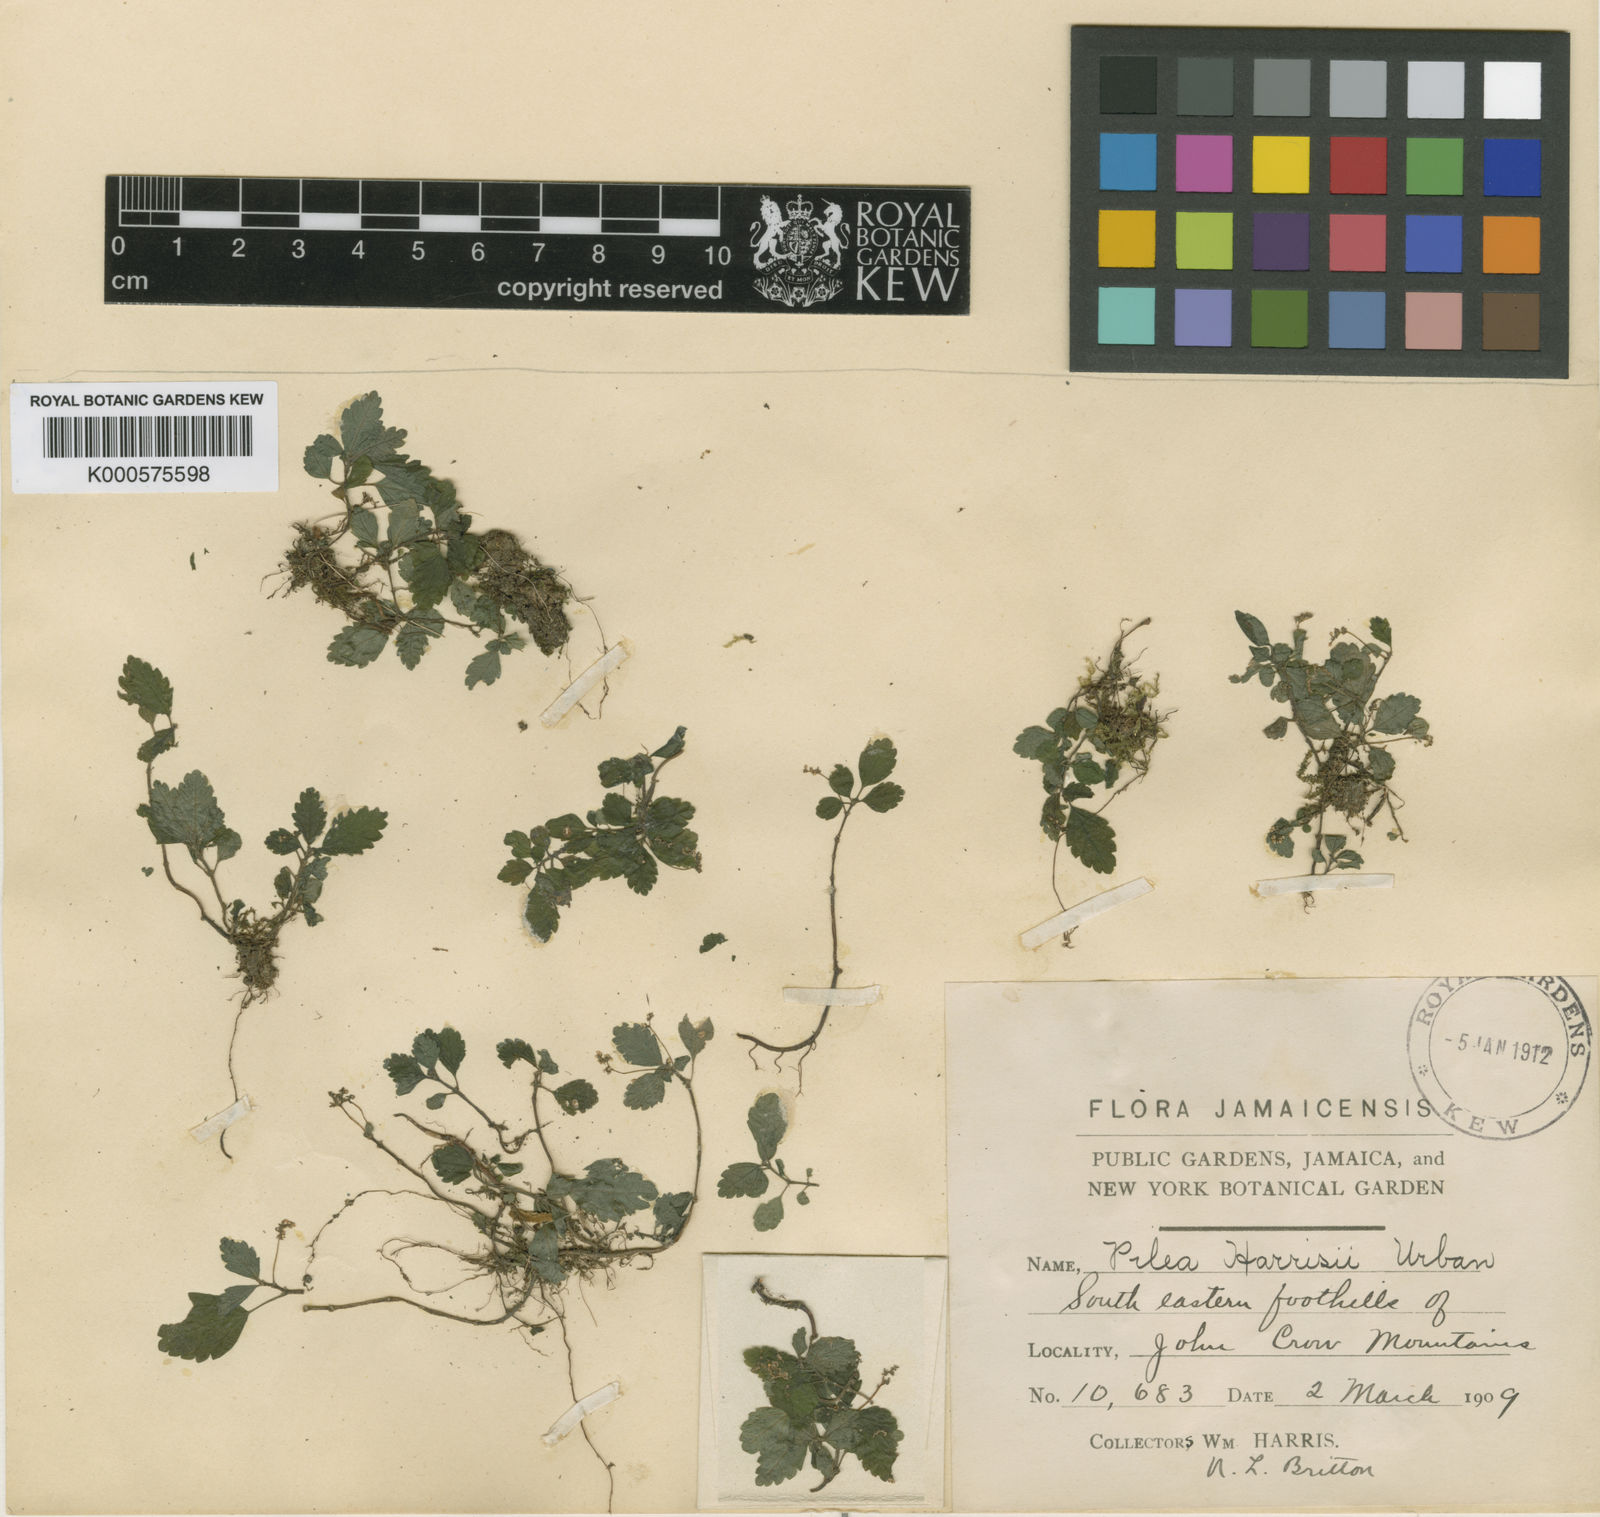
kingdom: Plantae
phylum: Tracheophyta
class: Magnoliopsida
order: Rosales
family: Urticaceae
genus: Pilea
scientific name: Pilea harrisii
